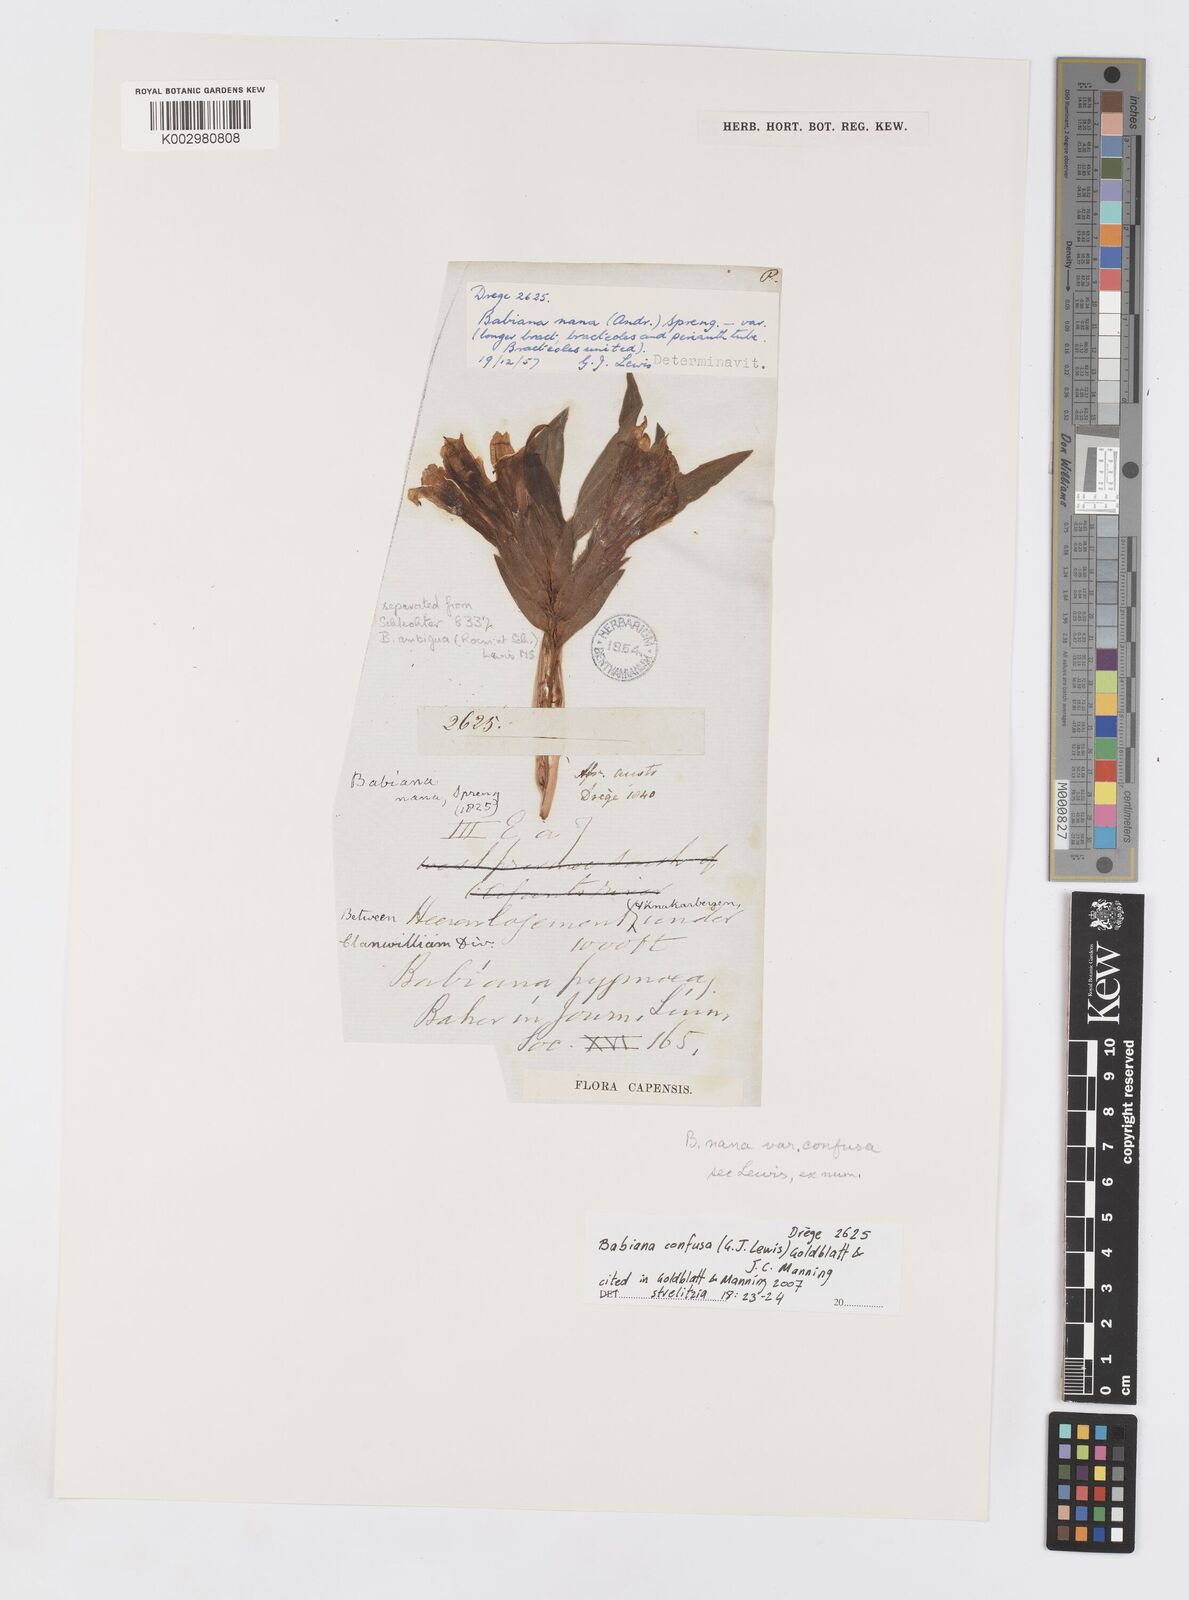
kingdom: Plantae
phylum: Tracheophyta
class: Liliopsida
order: Asparagales
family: Iridaceae
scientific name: Iridaceae
